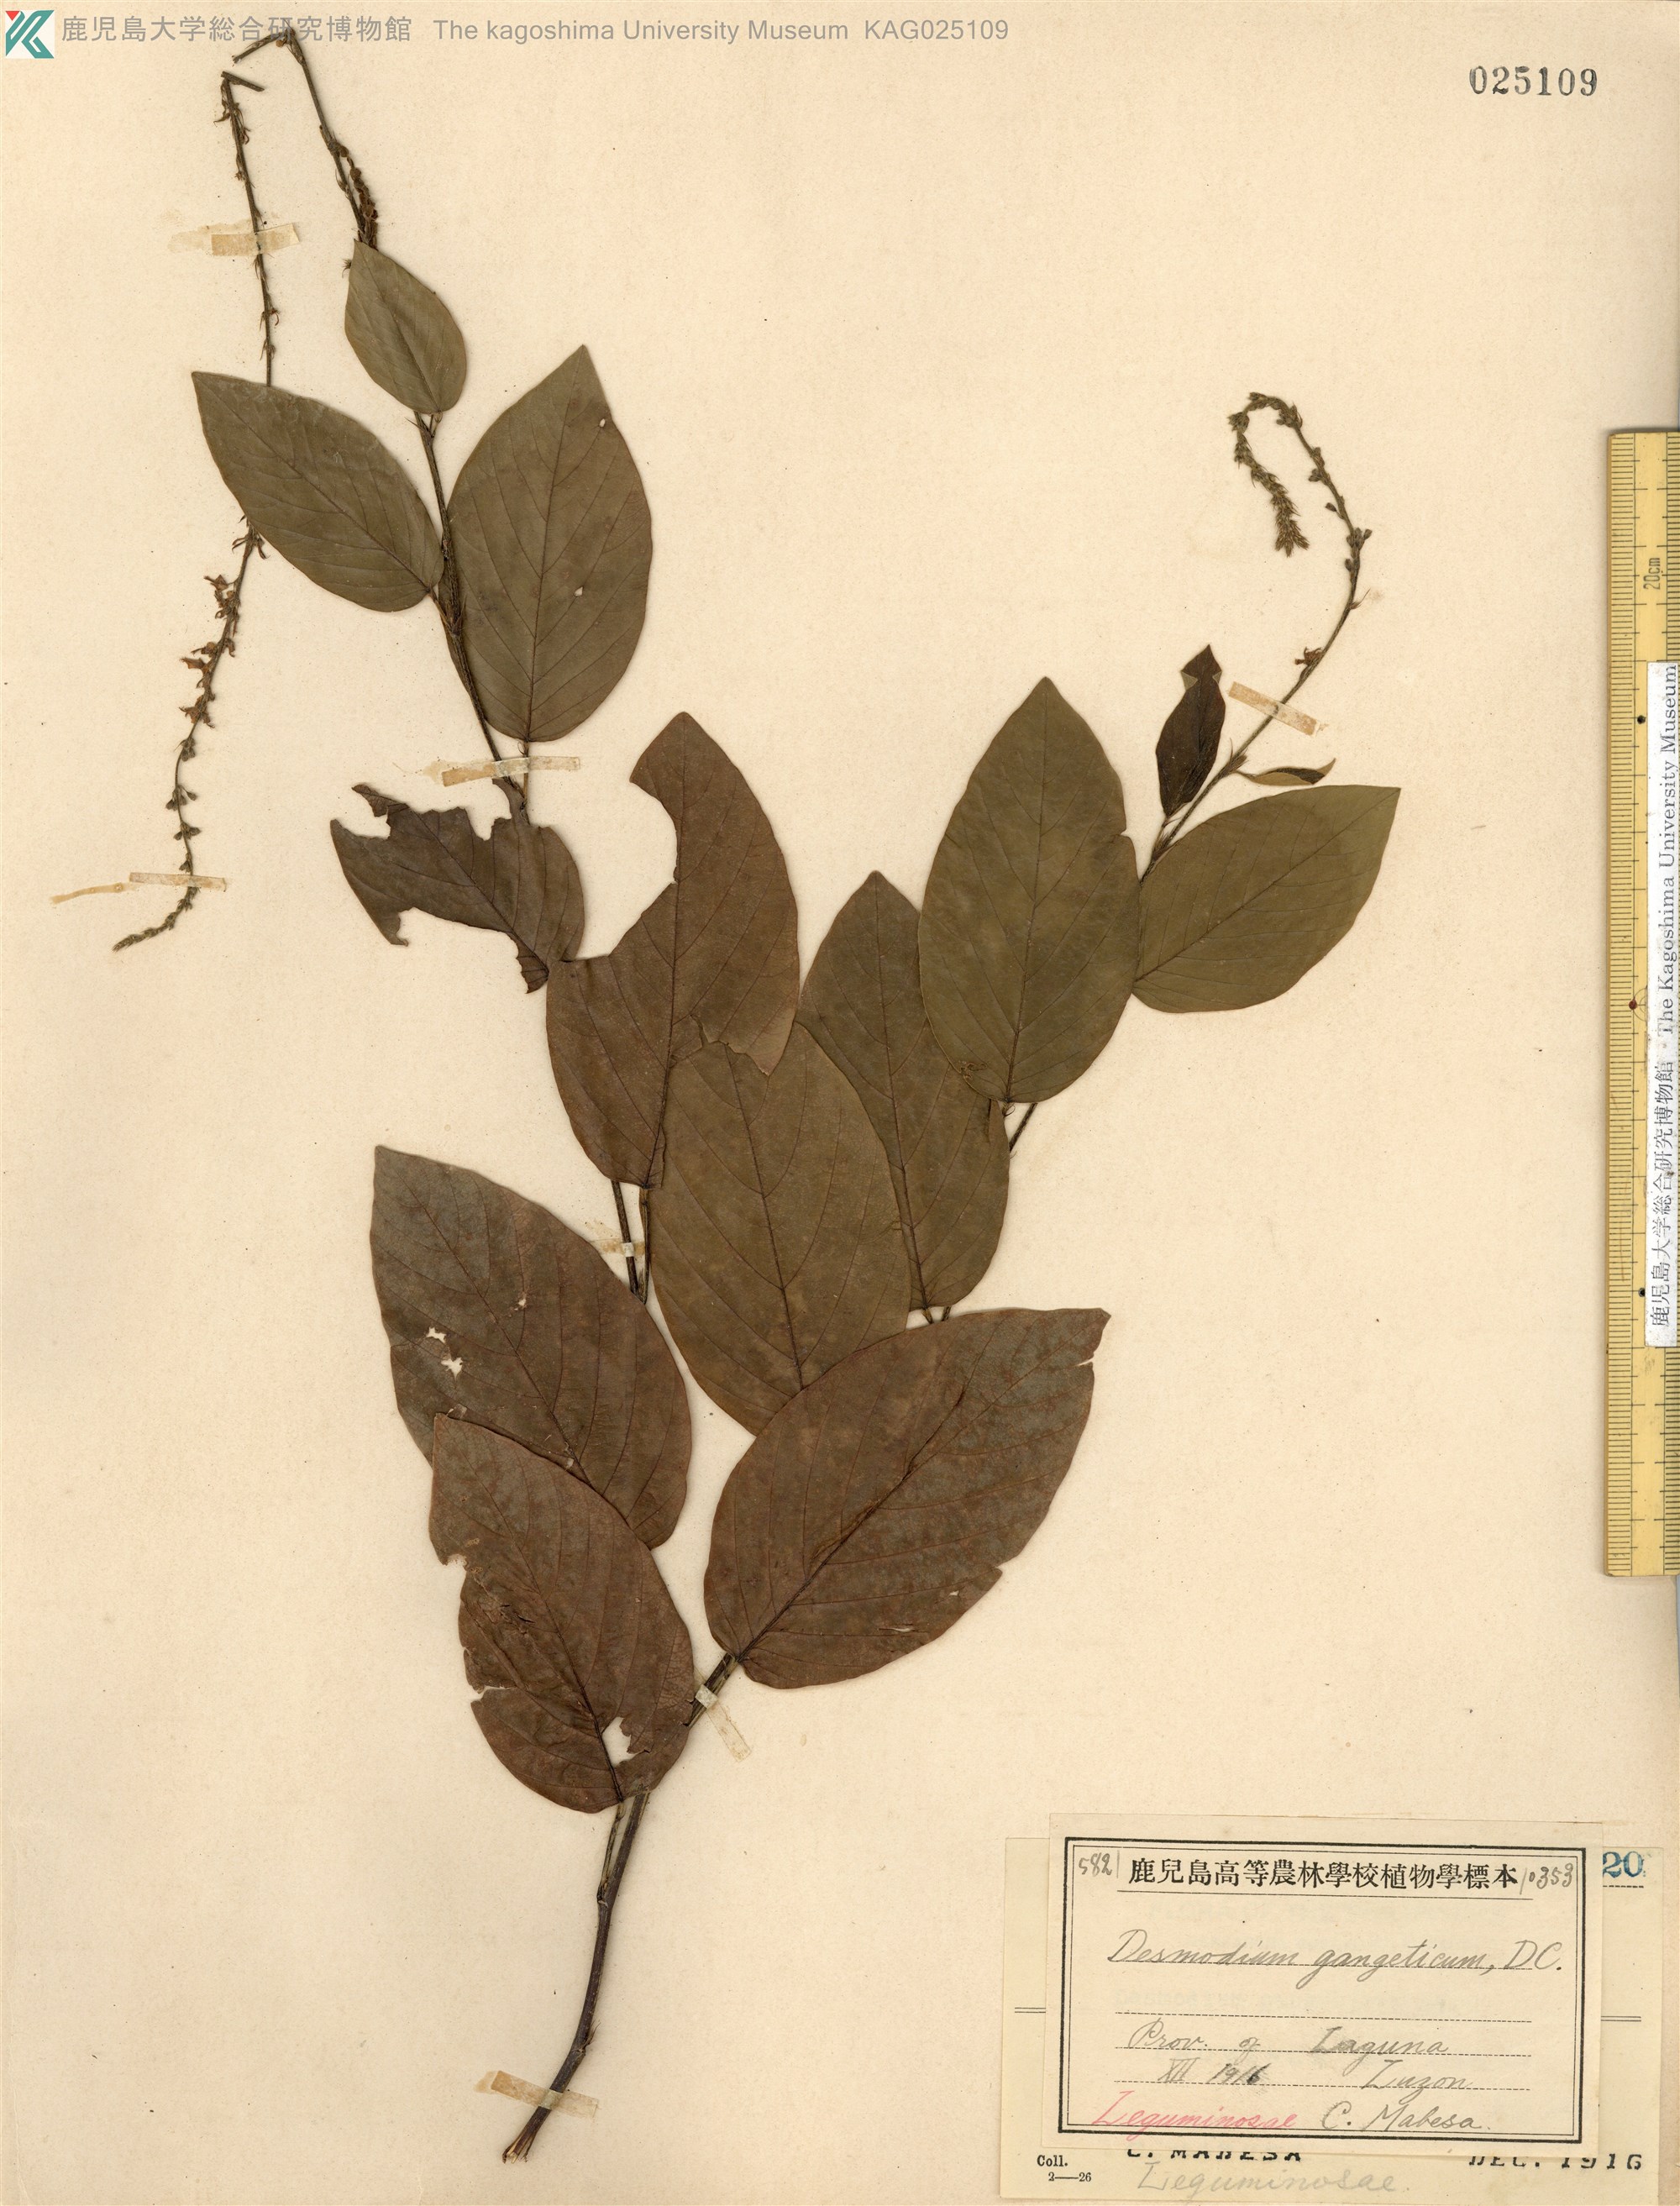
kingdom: Plantae
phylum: Tracheophyta
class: Magnoliopsida
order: Fabales
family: Fabaceae
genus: Pleurolobus
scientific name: Pleurolobus gangeticus
